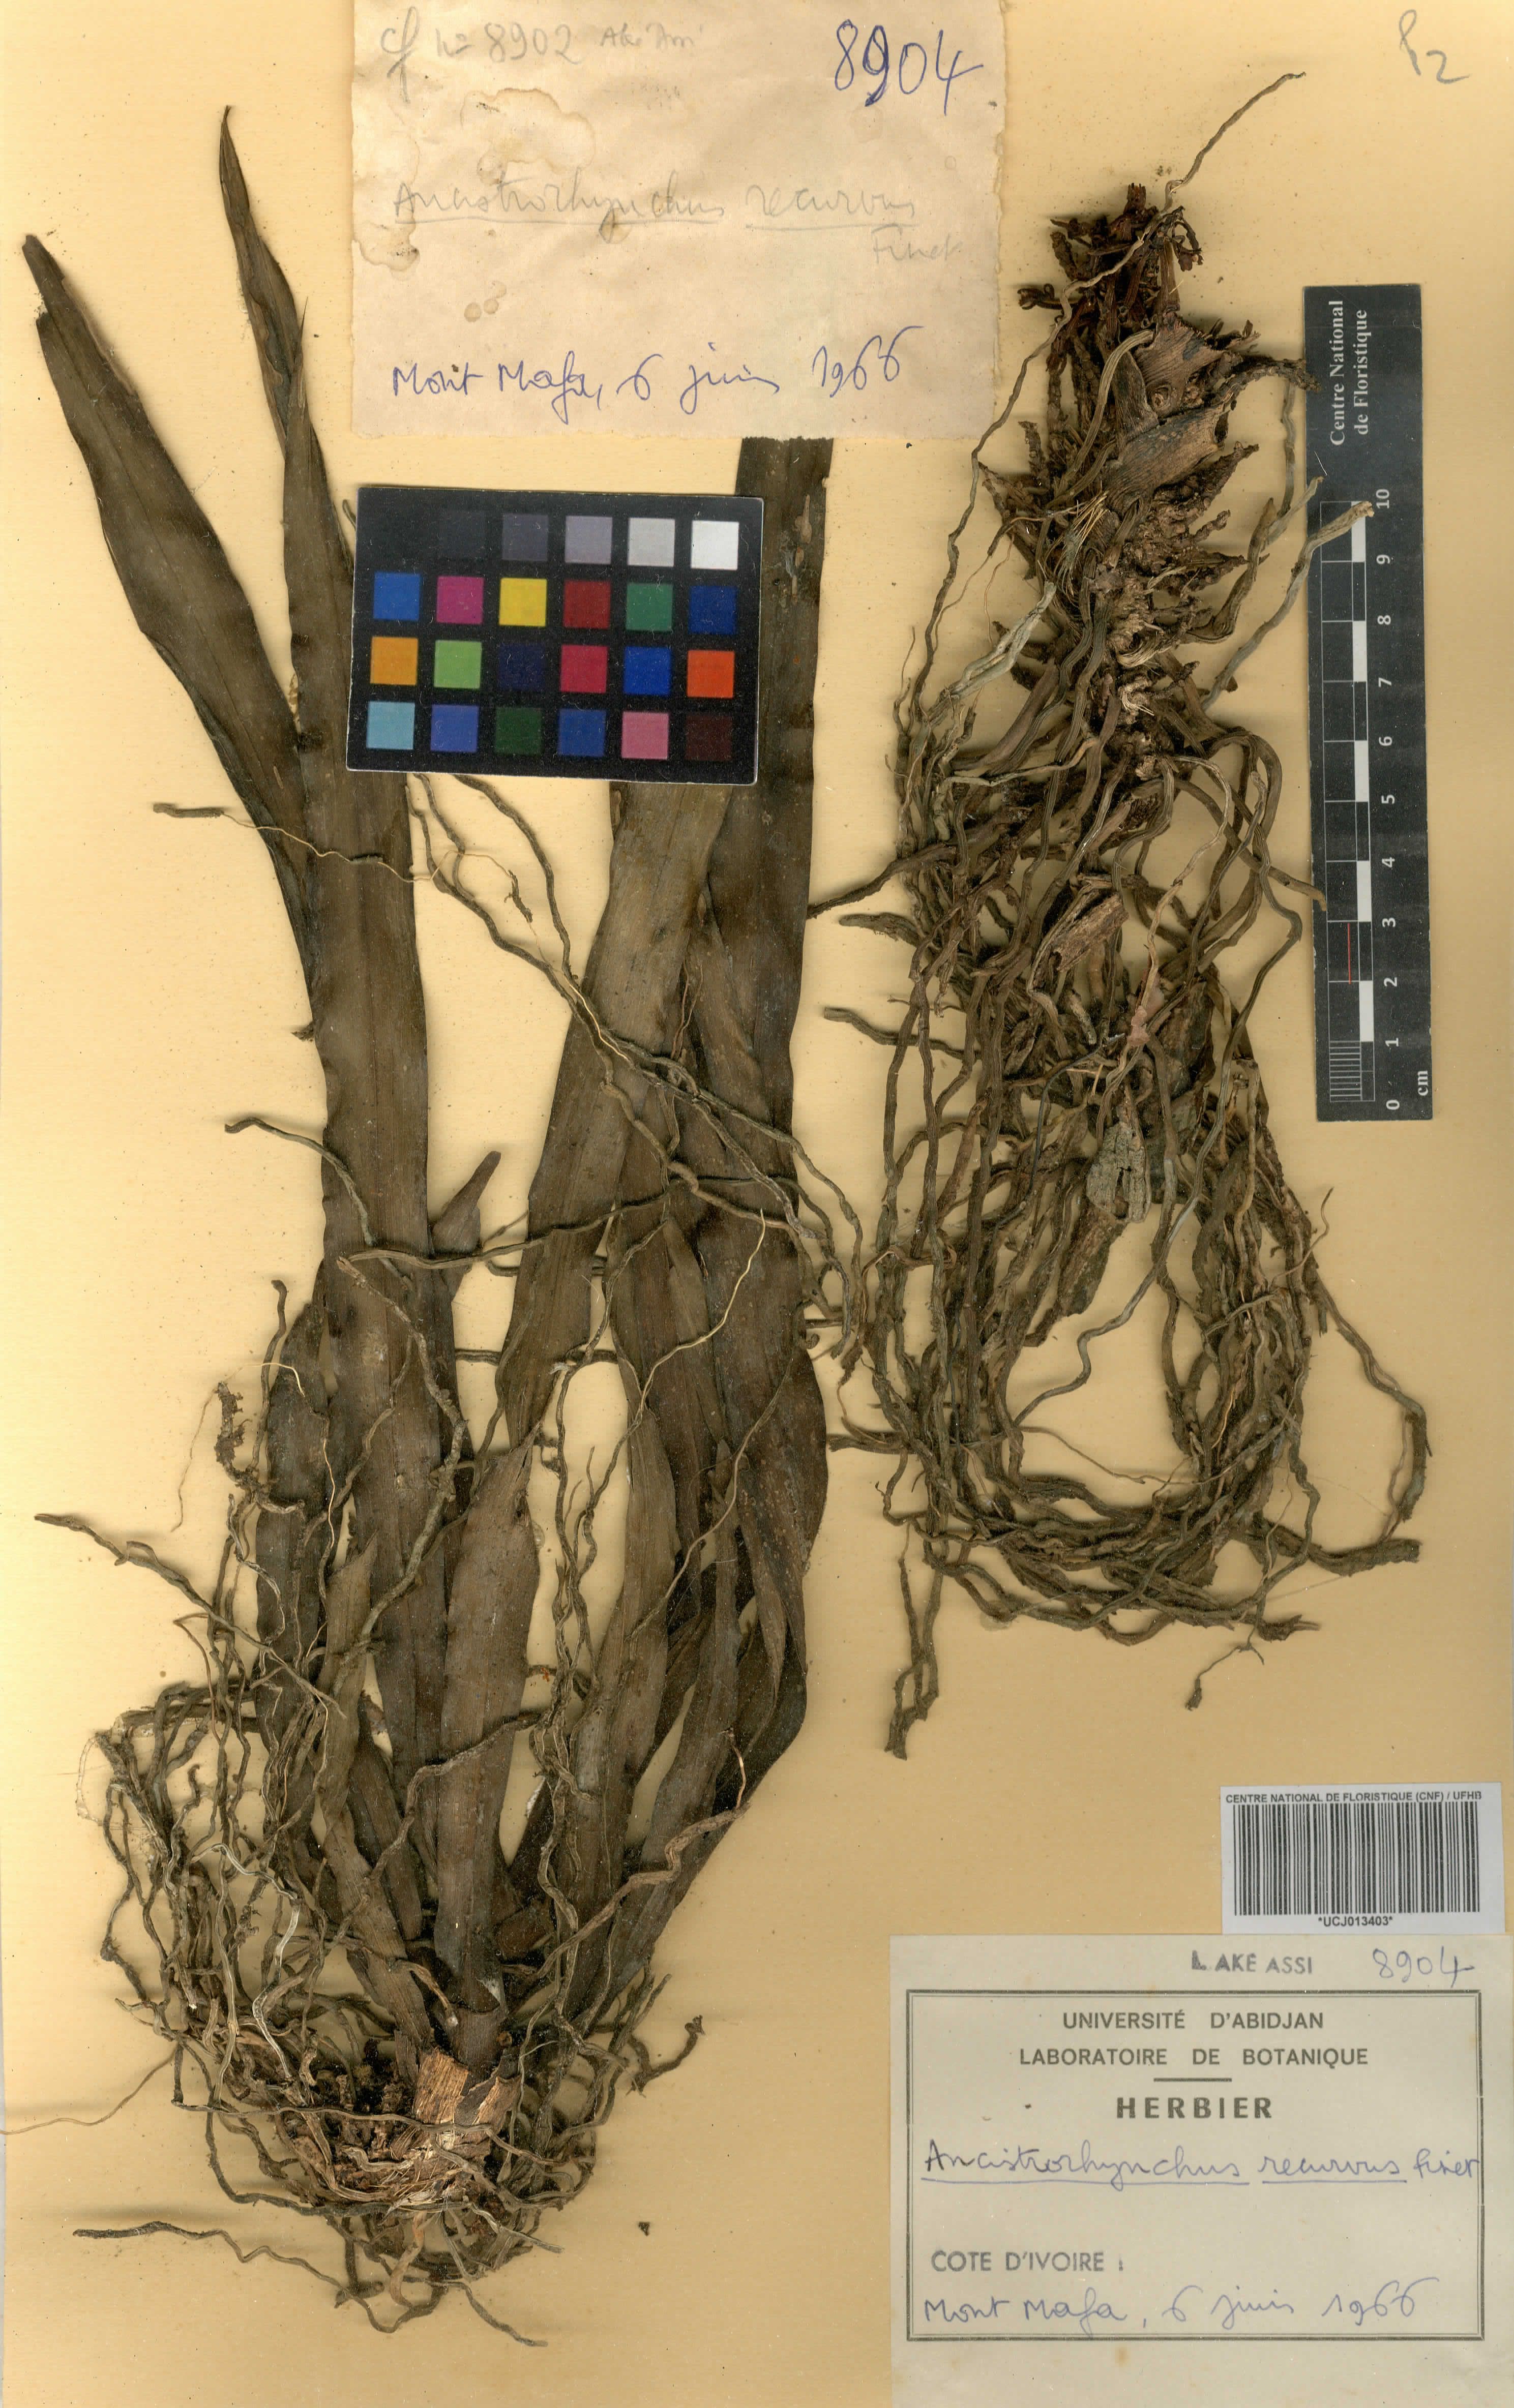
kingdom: Plantae
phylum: Tracheophyta
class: Liliopsida
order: Asparagales
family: Orchidaceae
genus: Ancistrorhynchus
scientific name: Ancistrorhynchus recurvus
